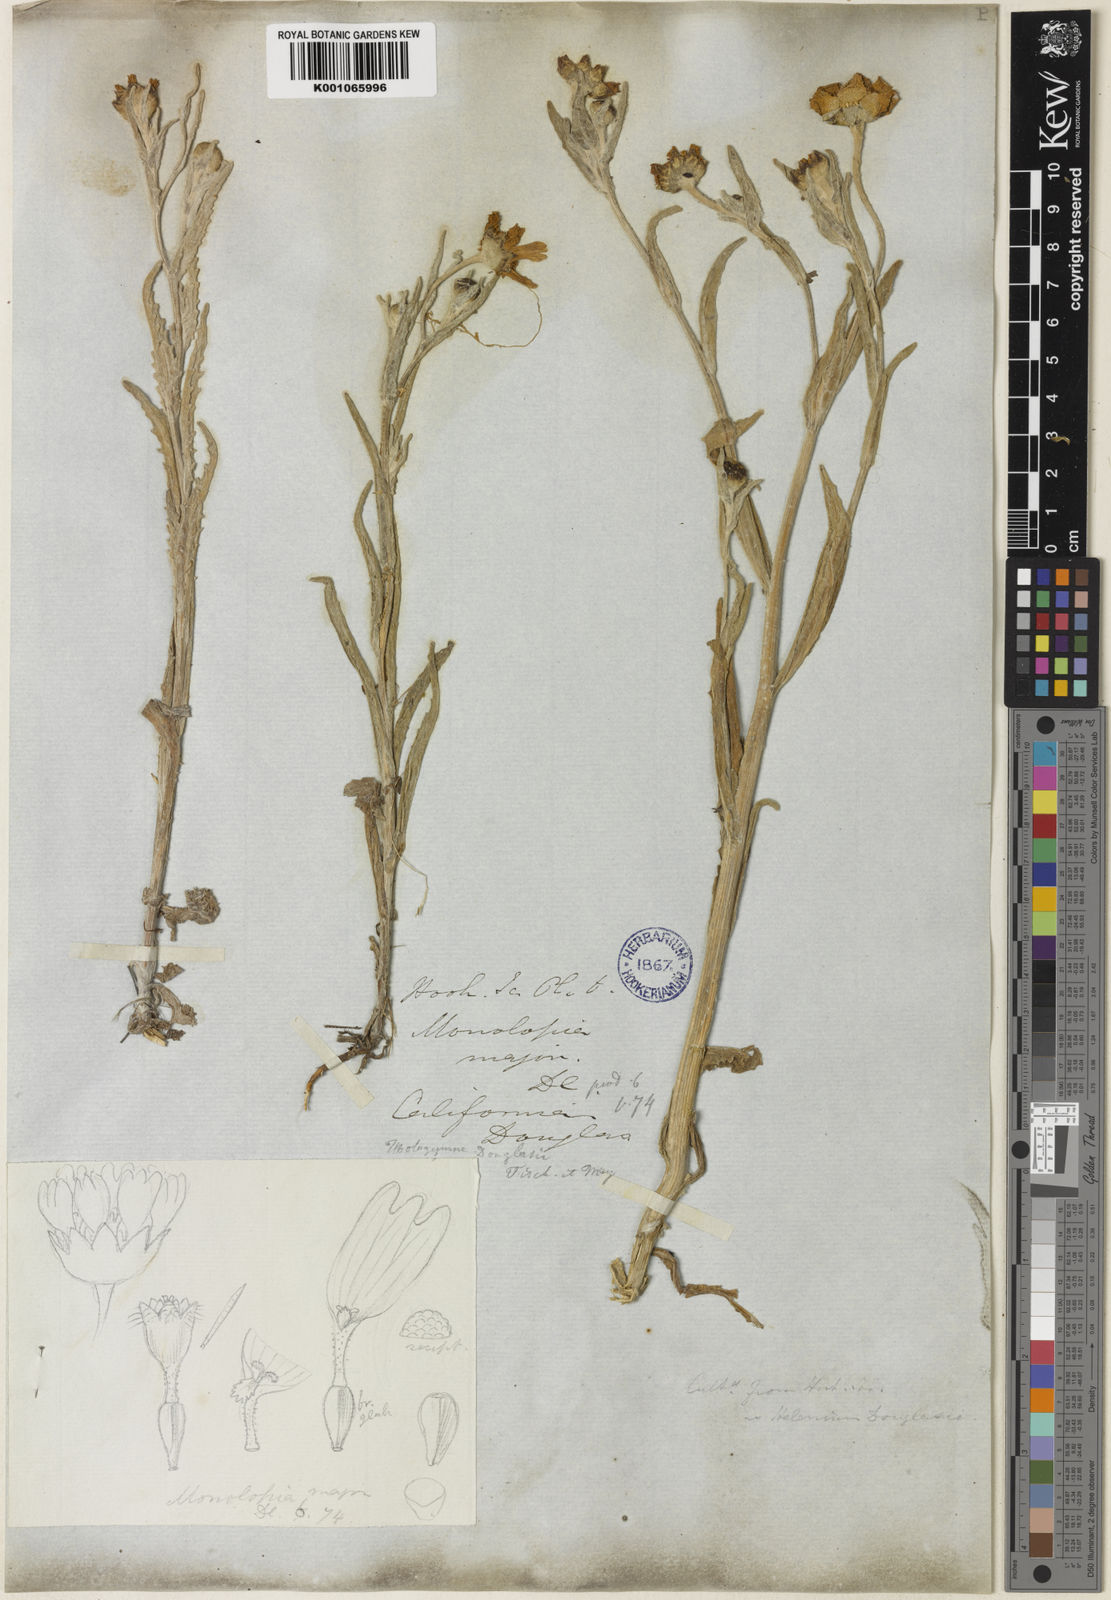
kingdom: Plantae
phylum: Tracheophyta
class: Magnoliopsida
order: Asterales
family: Asteraceae
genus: Monolopia
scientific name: Monolopia major
